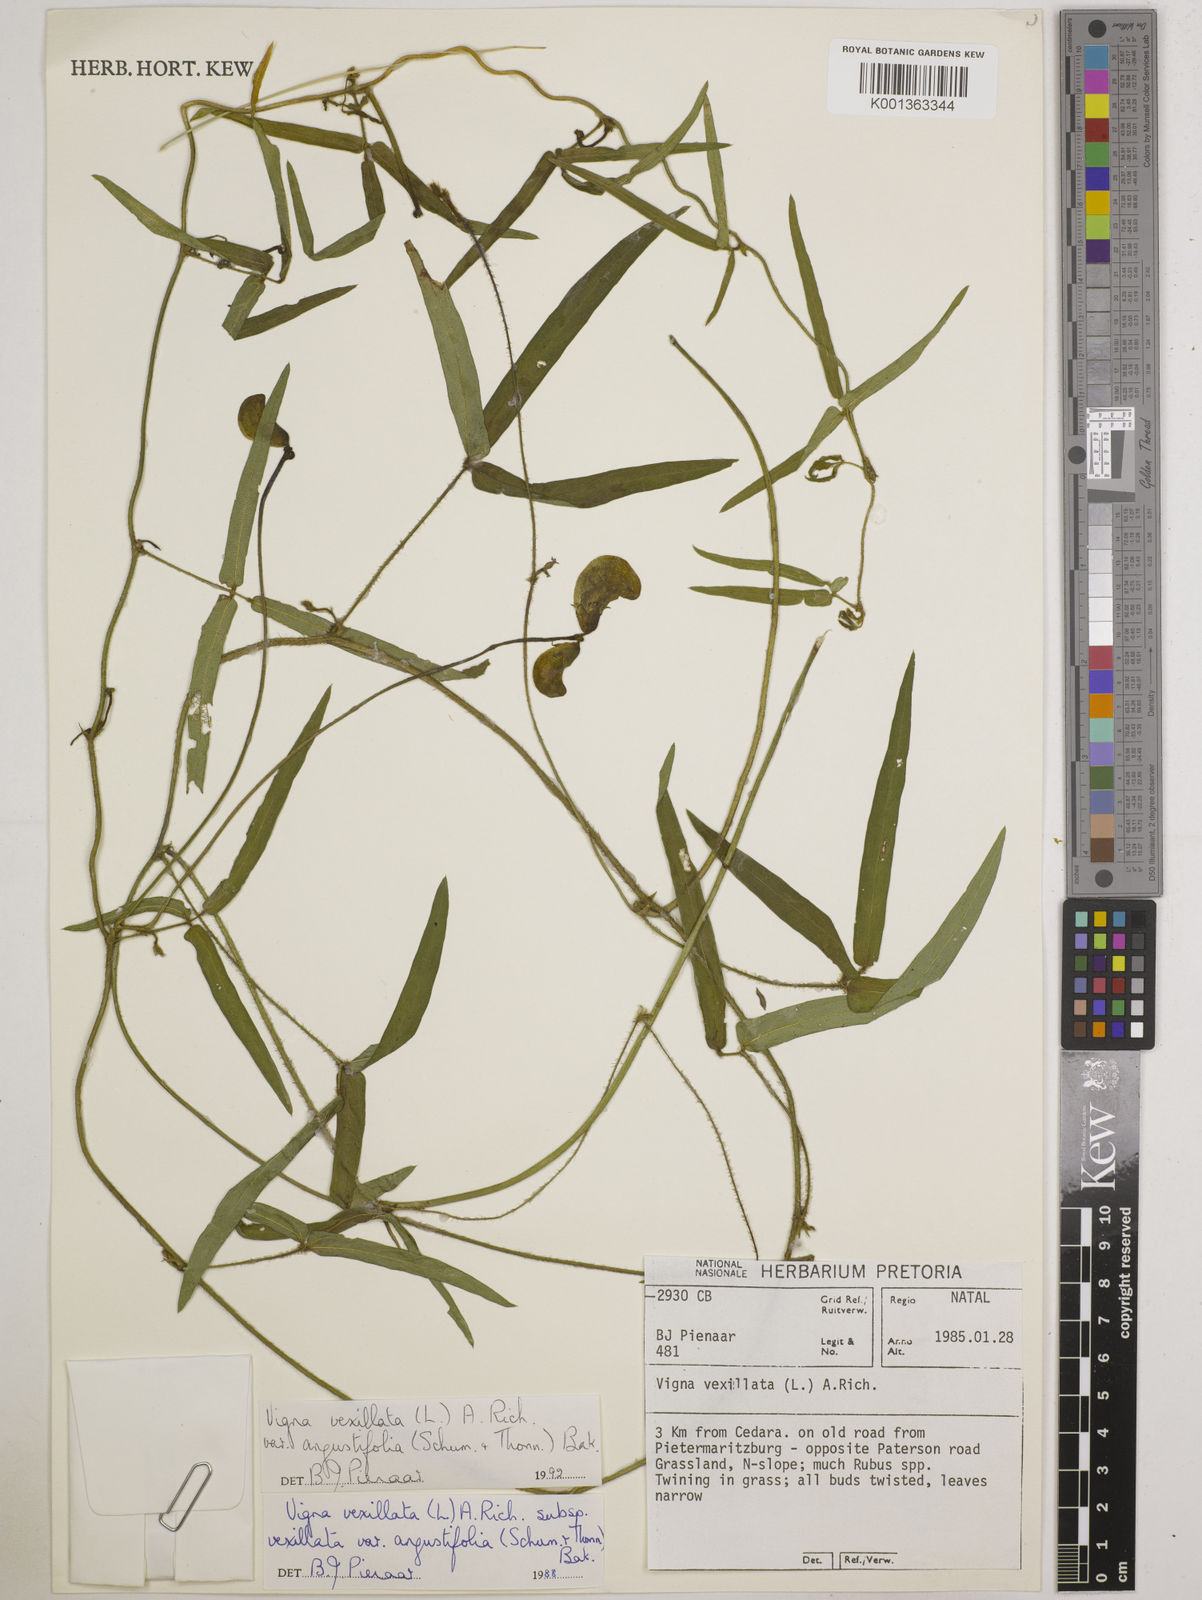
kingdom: Plantae
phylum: Tracheophyta
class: Magnoliopsida
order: Fabales
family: Fabaceae
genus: Vigna
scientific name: Vigna
